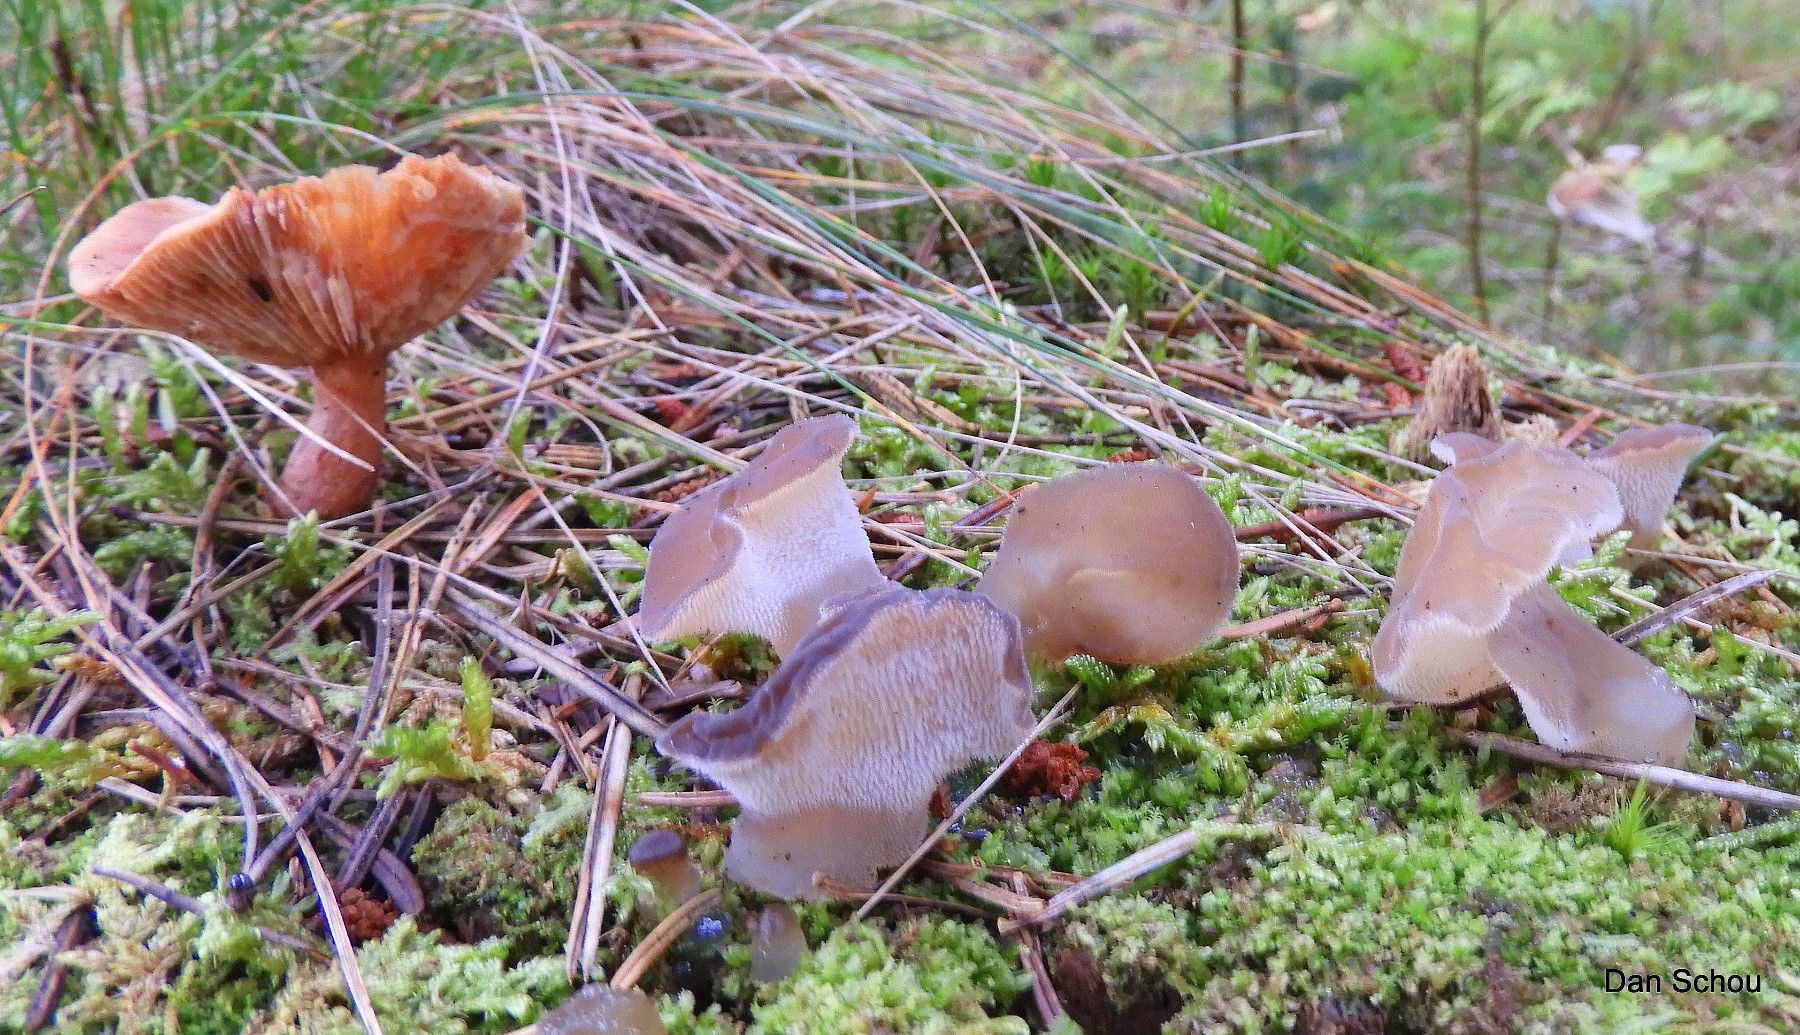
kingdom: Fungi
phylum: Basidiomycota
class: Agaricomycetes
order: Auriculariales
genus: Pseudohydnum
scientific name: Pseudohydnum gelatinosum
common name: bævretand
